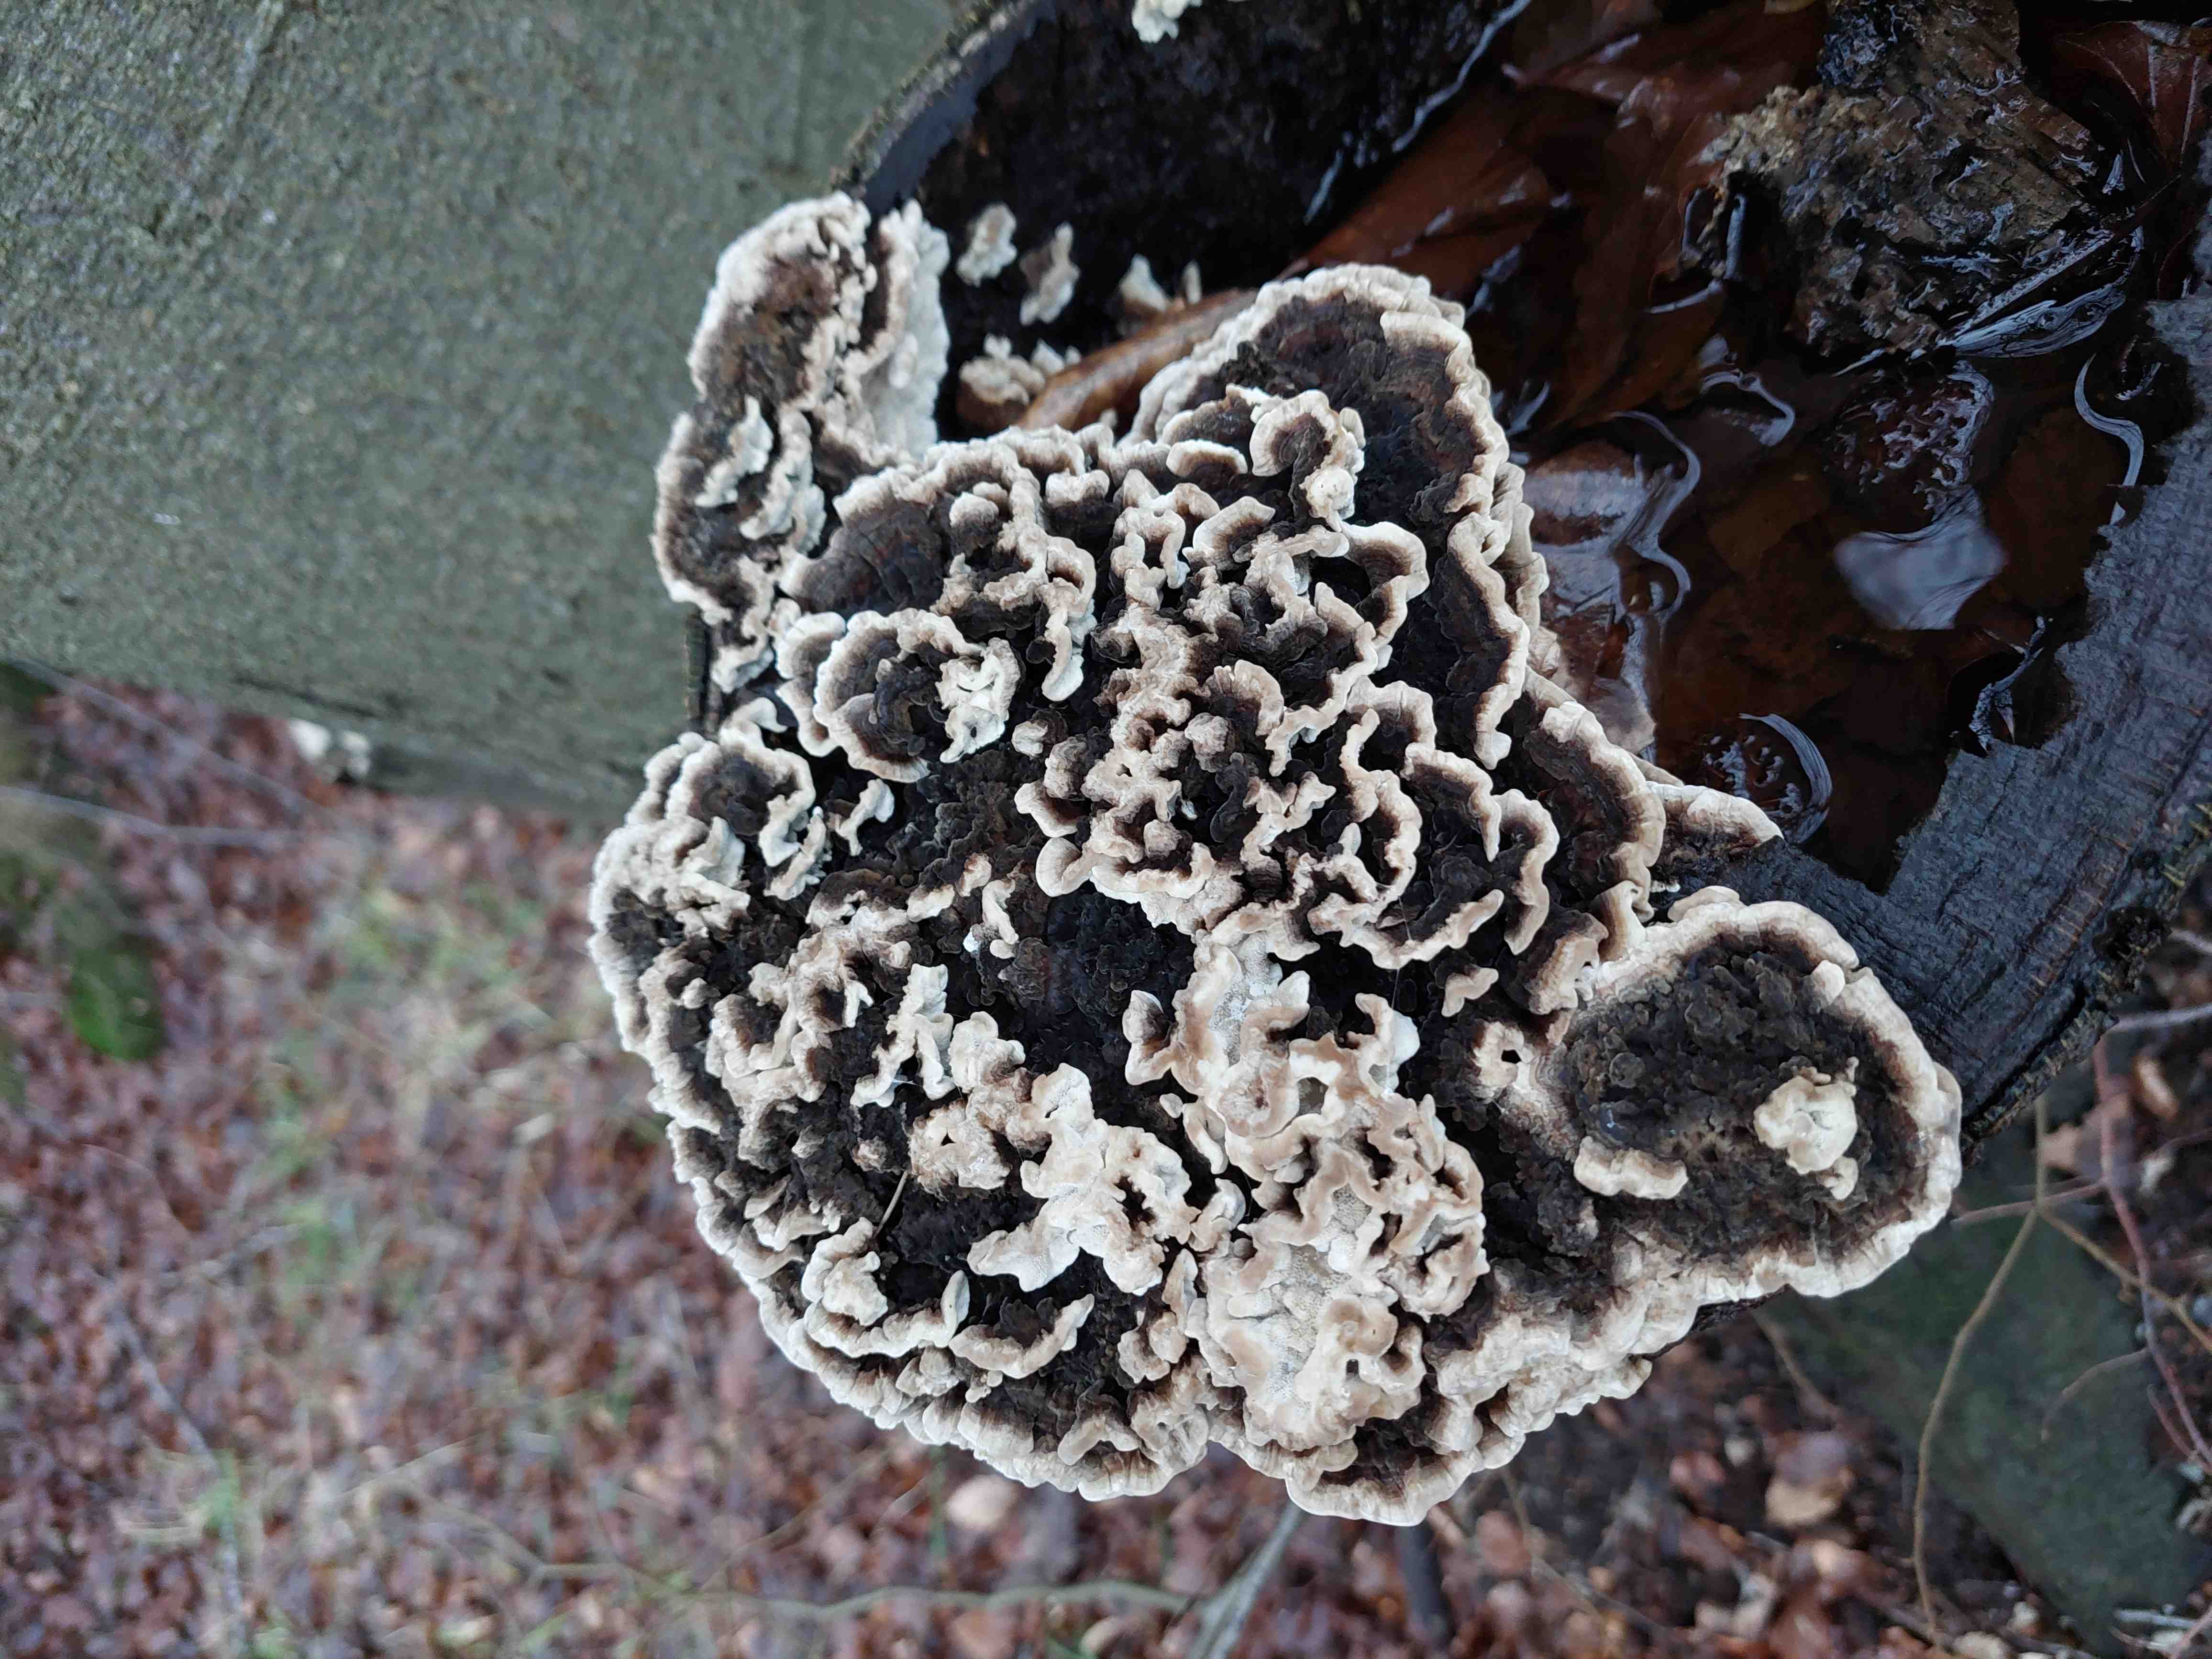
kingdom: Fungi
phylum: Basidiomycota
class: Agaricomycetes
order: Polyporales
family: Polyporaceae
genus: Trametes
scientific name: Trametes versicolor
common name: broget læderporesvamp
